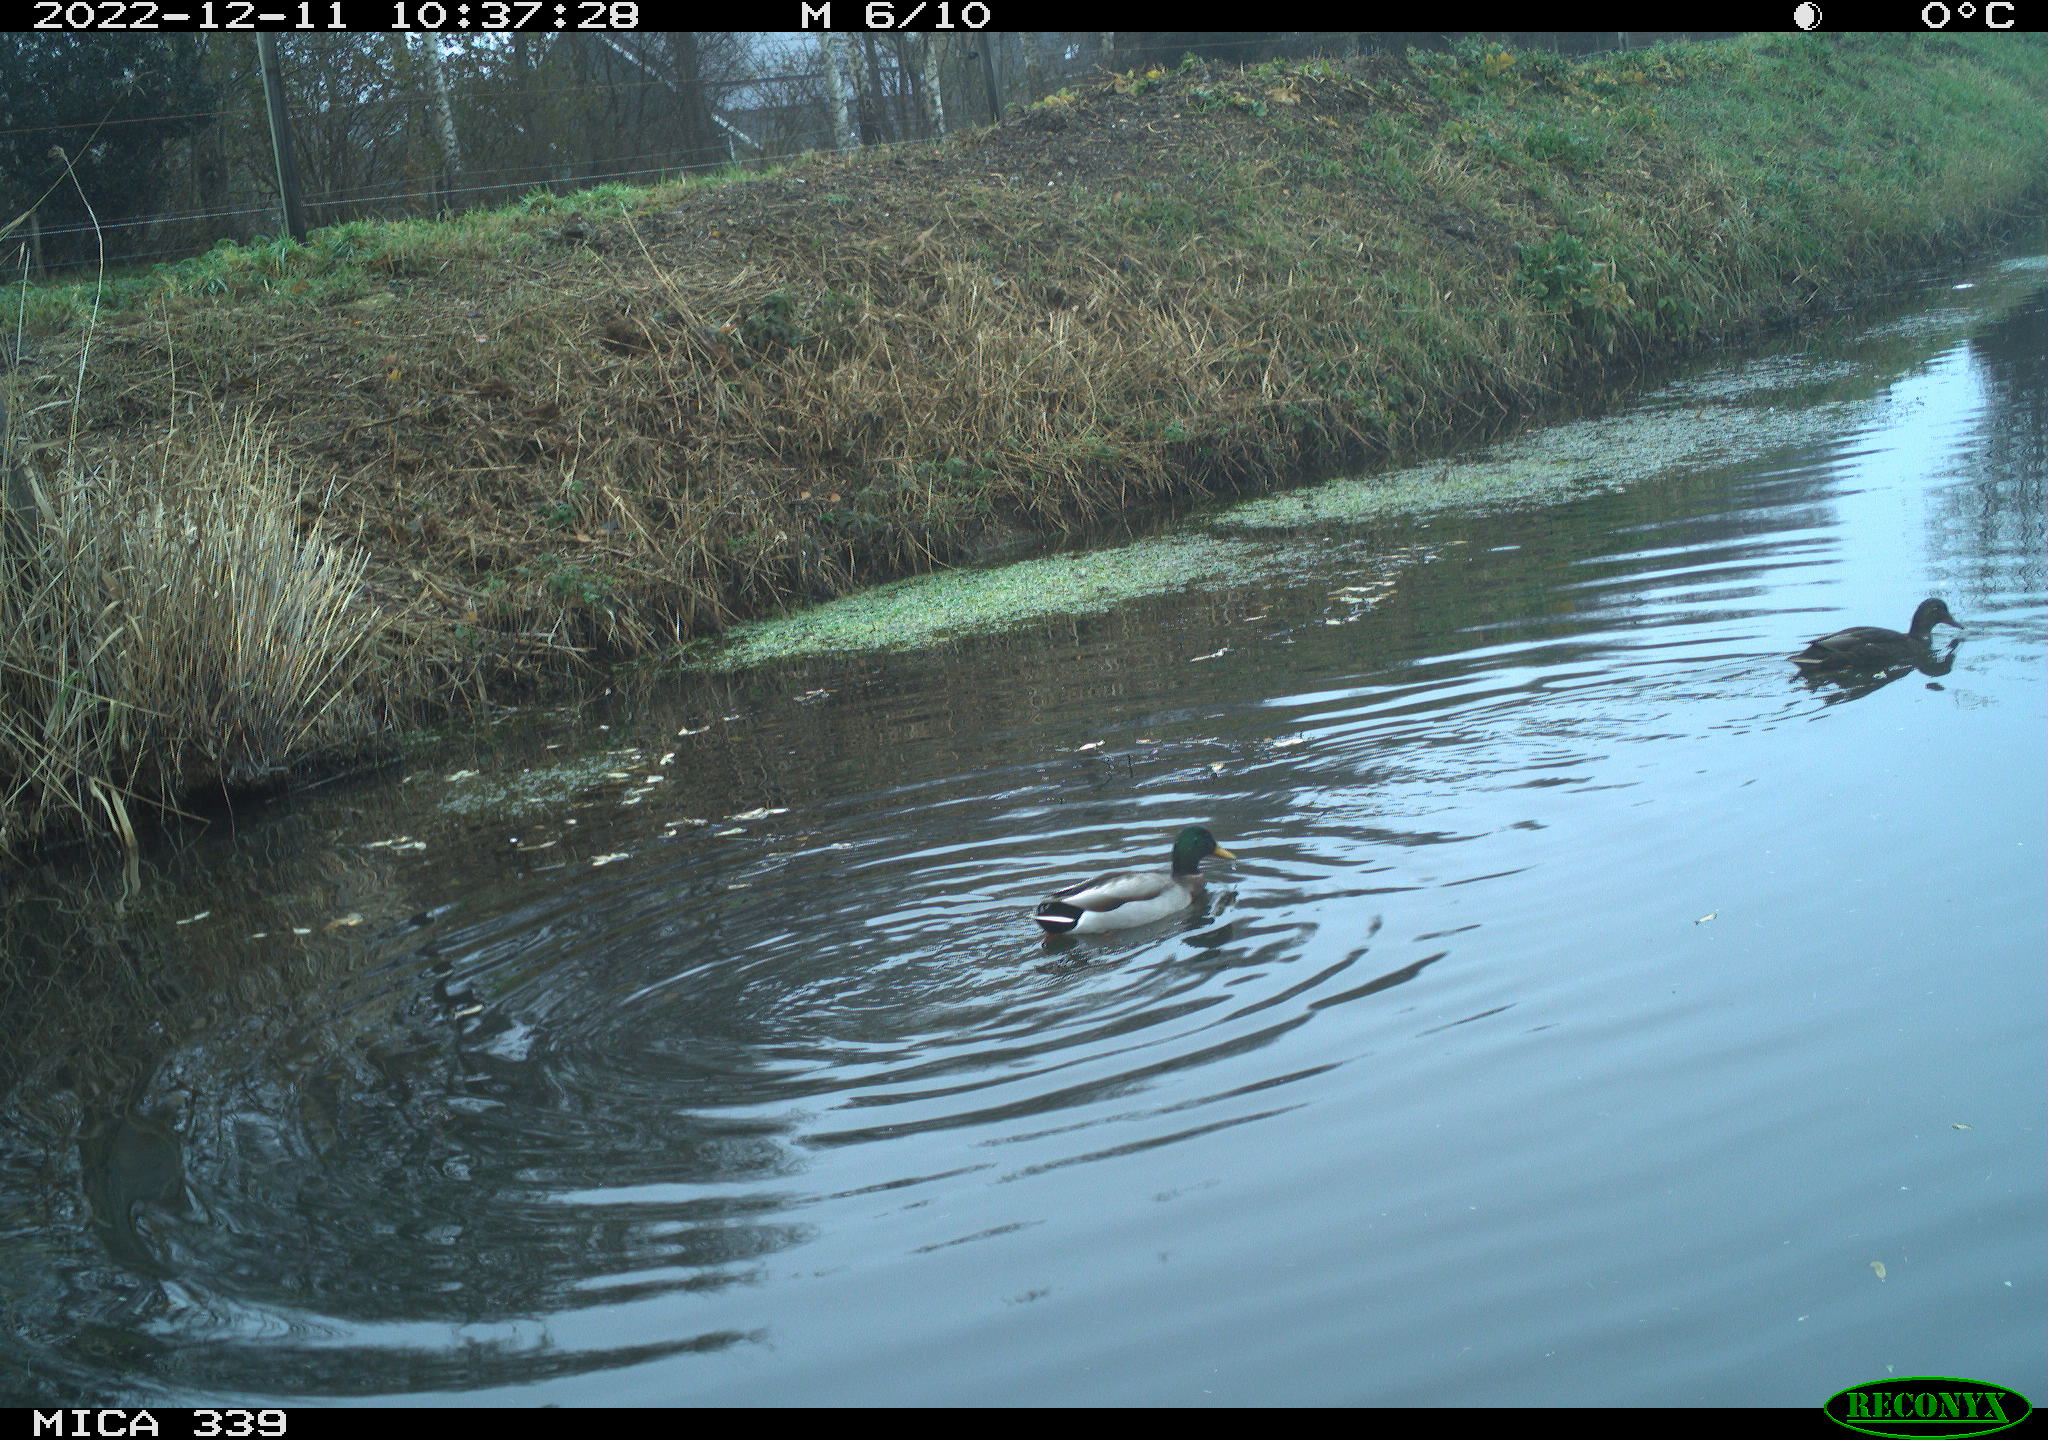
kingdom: Animalia
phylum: Chordata
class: Aves
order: Anseriformes
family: Anatidae
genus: Anas
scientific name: Anas
